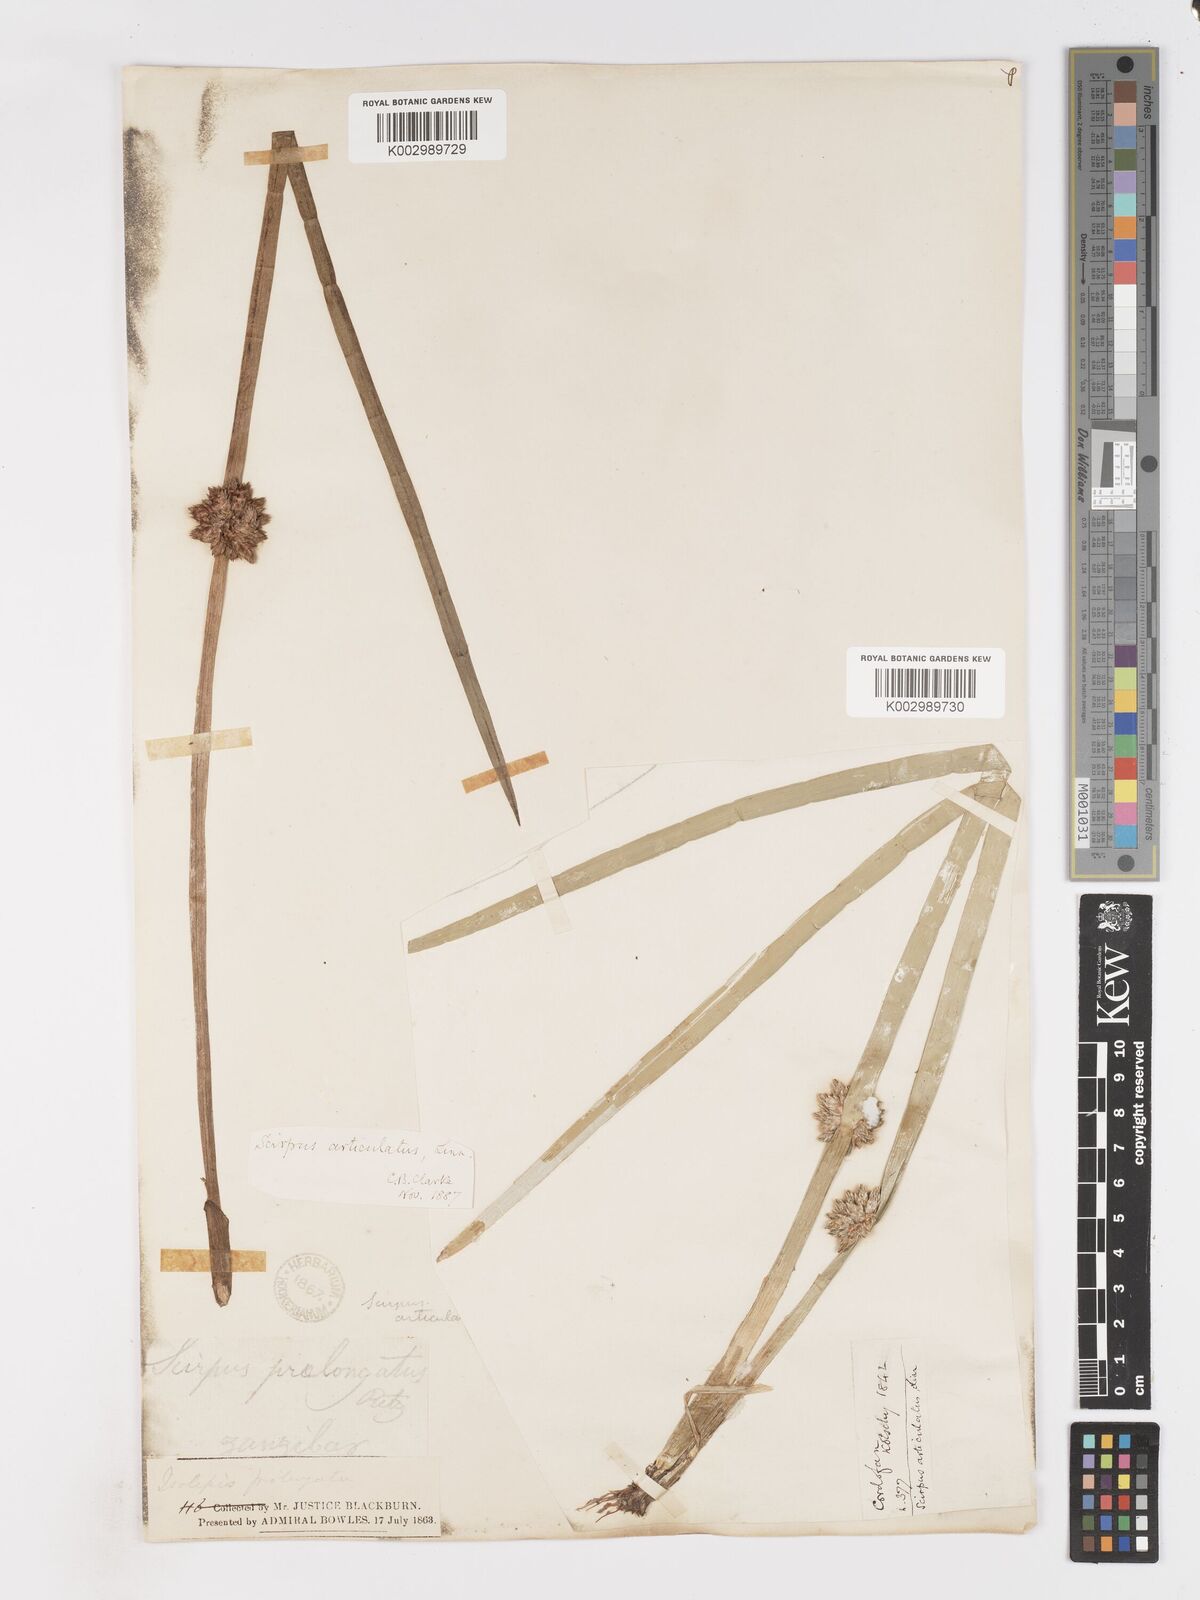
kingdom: Plantae
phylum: Tracheophyta
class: Liliopsida
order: Poales
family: Cyperaceae
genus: Schoenoplectiella
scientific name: Schoenoplectiella articulata
